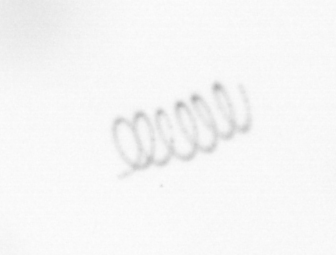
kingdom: Chromista
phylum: Ochrophyta
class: Bacillariophyceae
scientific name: Bacillariophyceae
